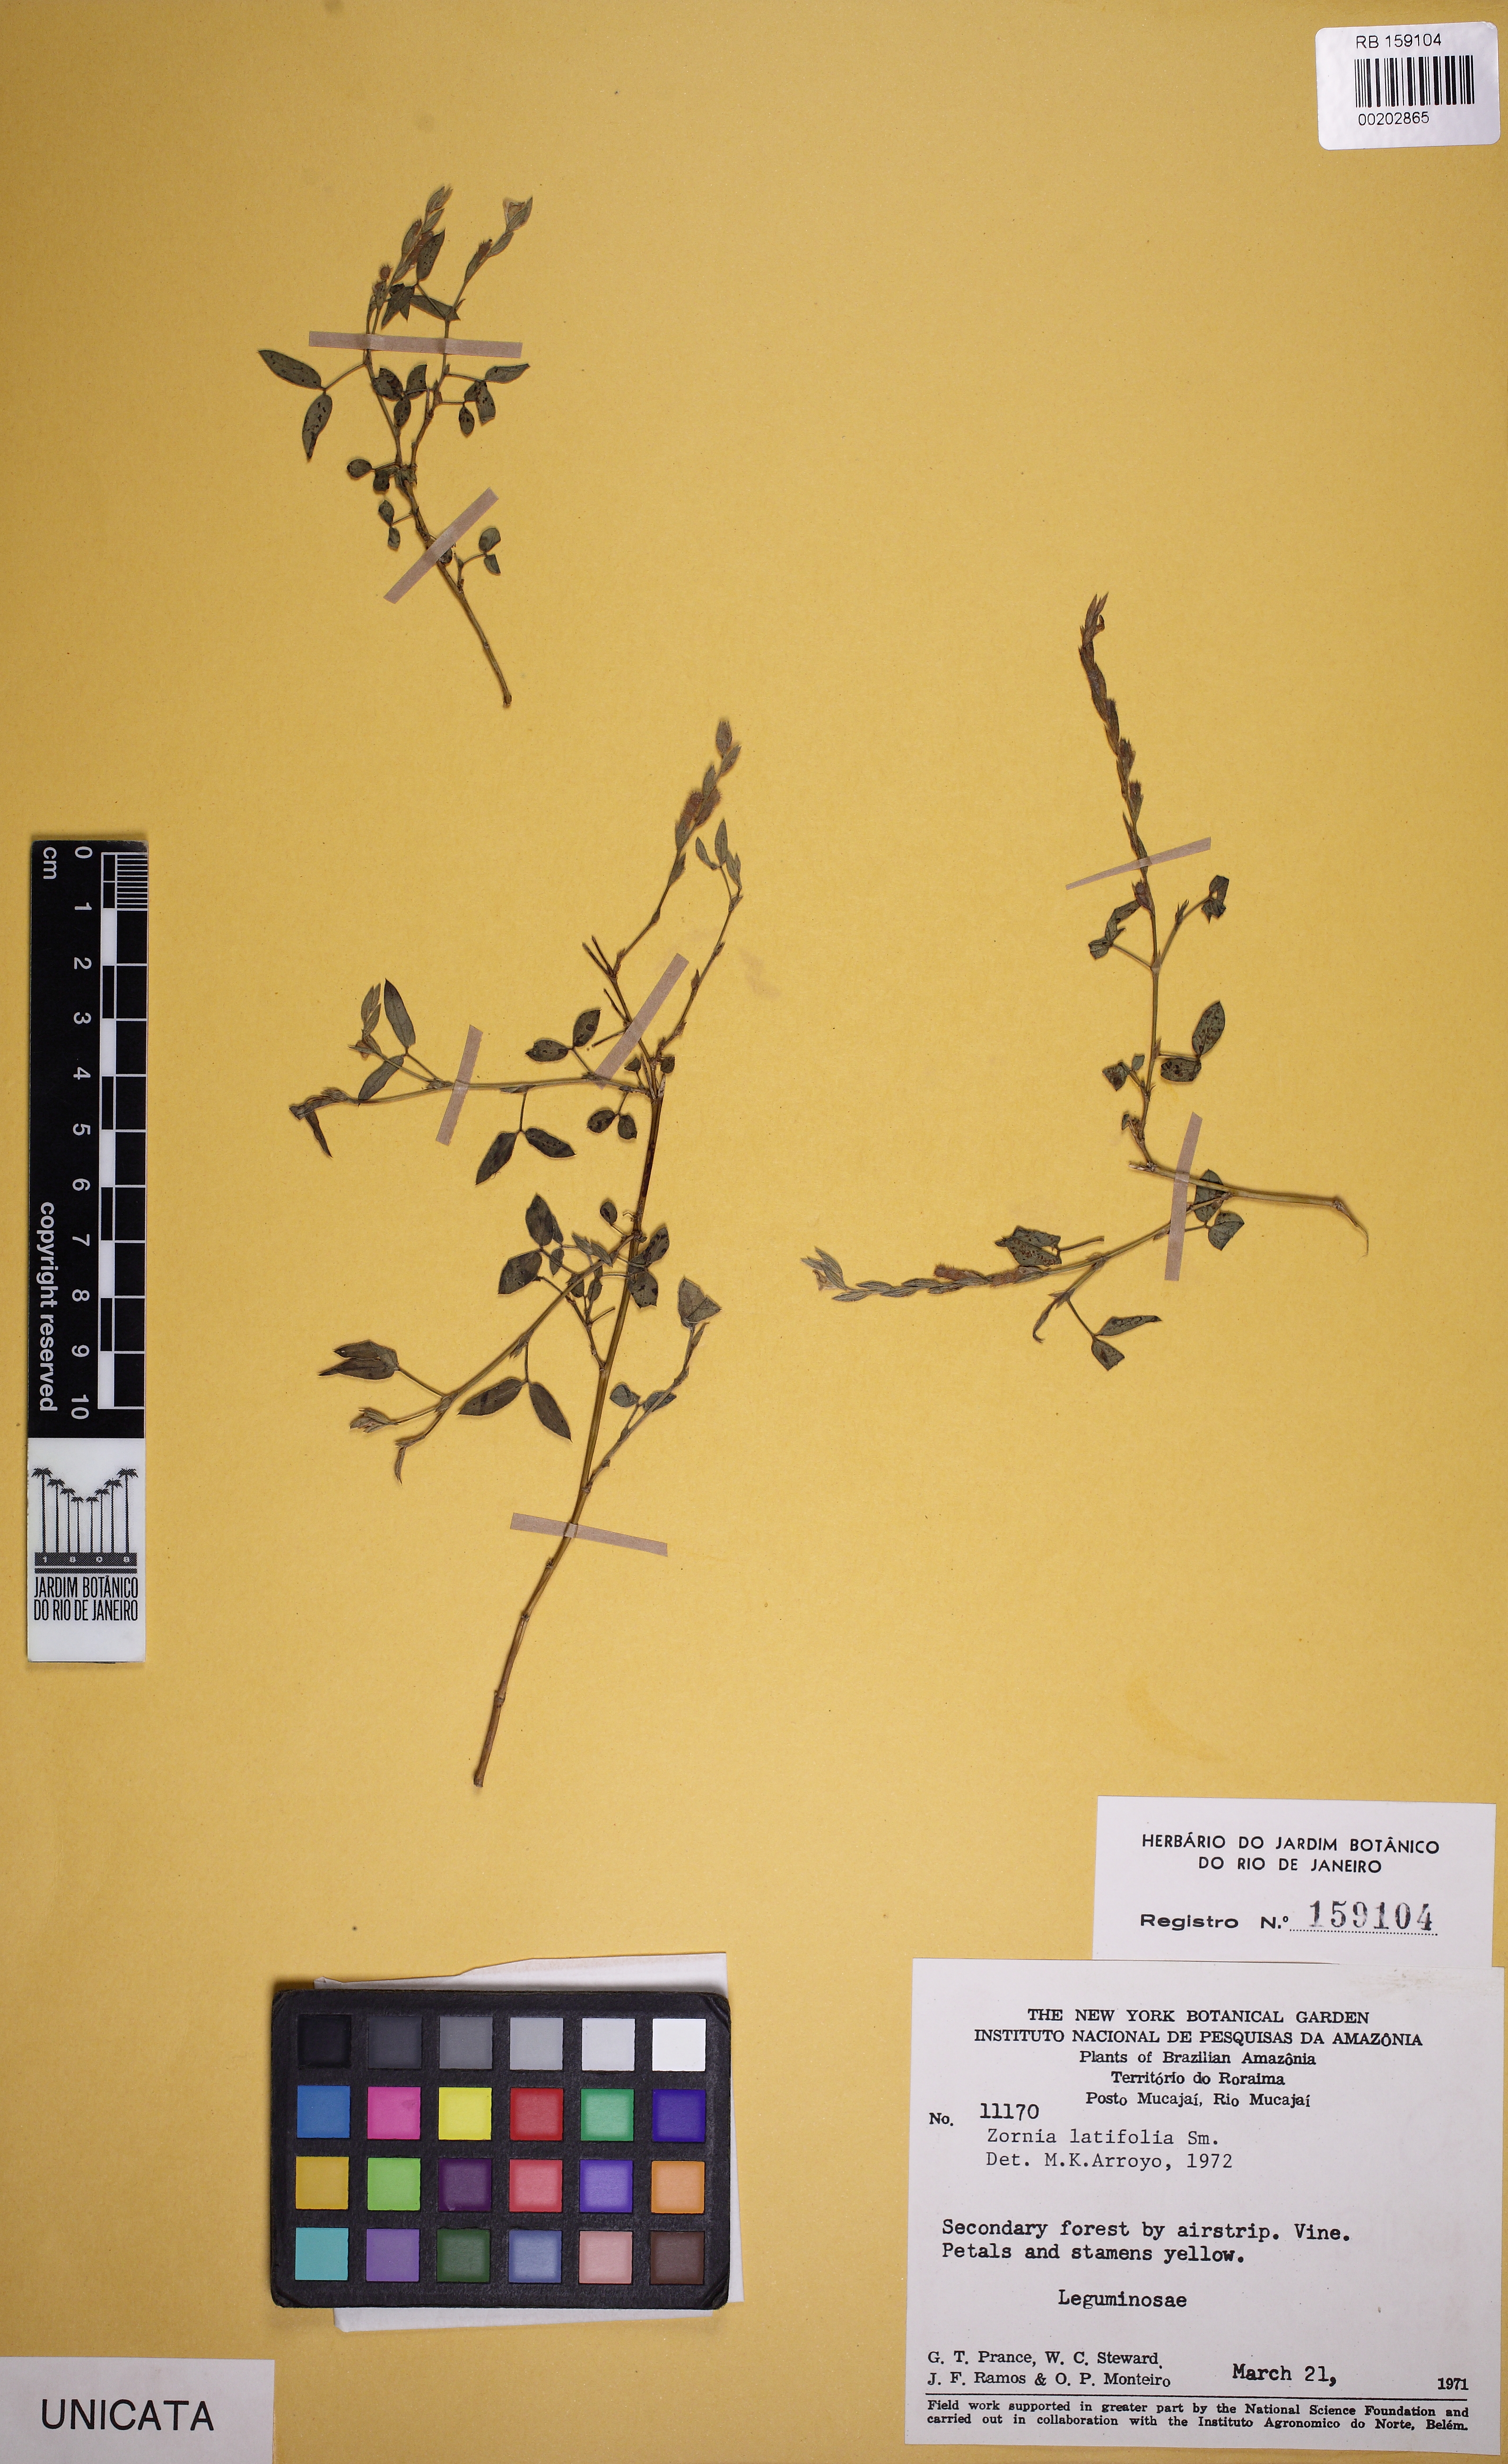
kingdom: Plantae
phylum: Tracheophyta
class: Magnoliopsida
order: Fabales
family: Fabaceae
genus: Zornia
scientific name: Zornia latifolia
